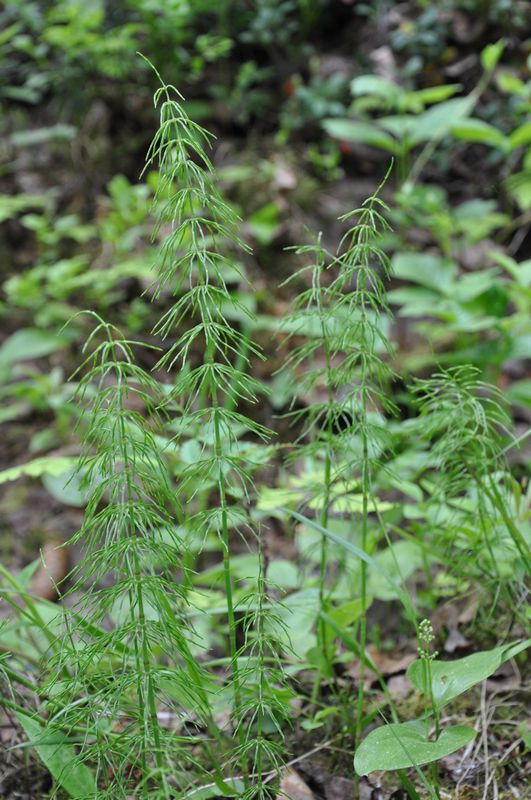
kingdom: Plantae
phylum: Tracheophyta
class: Polypodiopsida
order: Equisetales
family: Equisetaceae
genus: Equisetum
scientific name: Equisetum pratense
